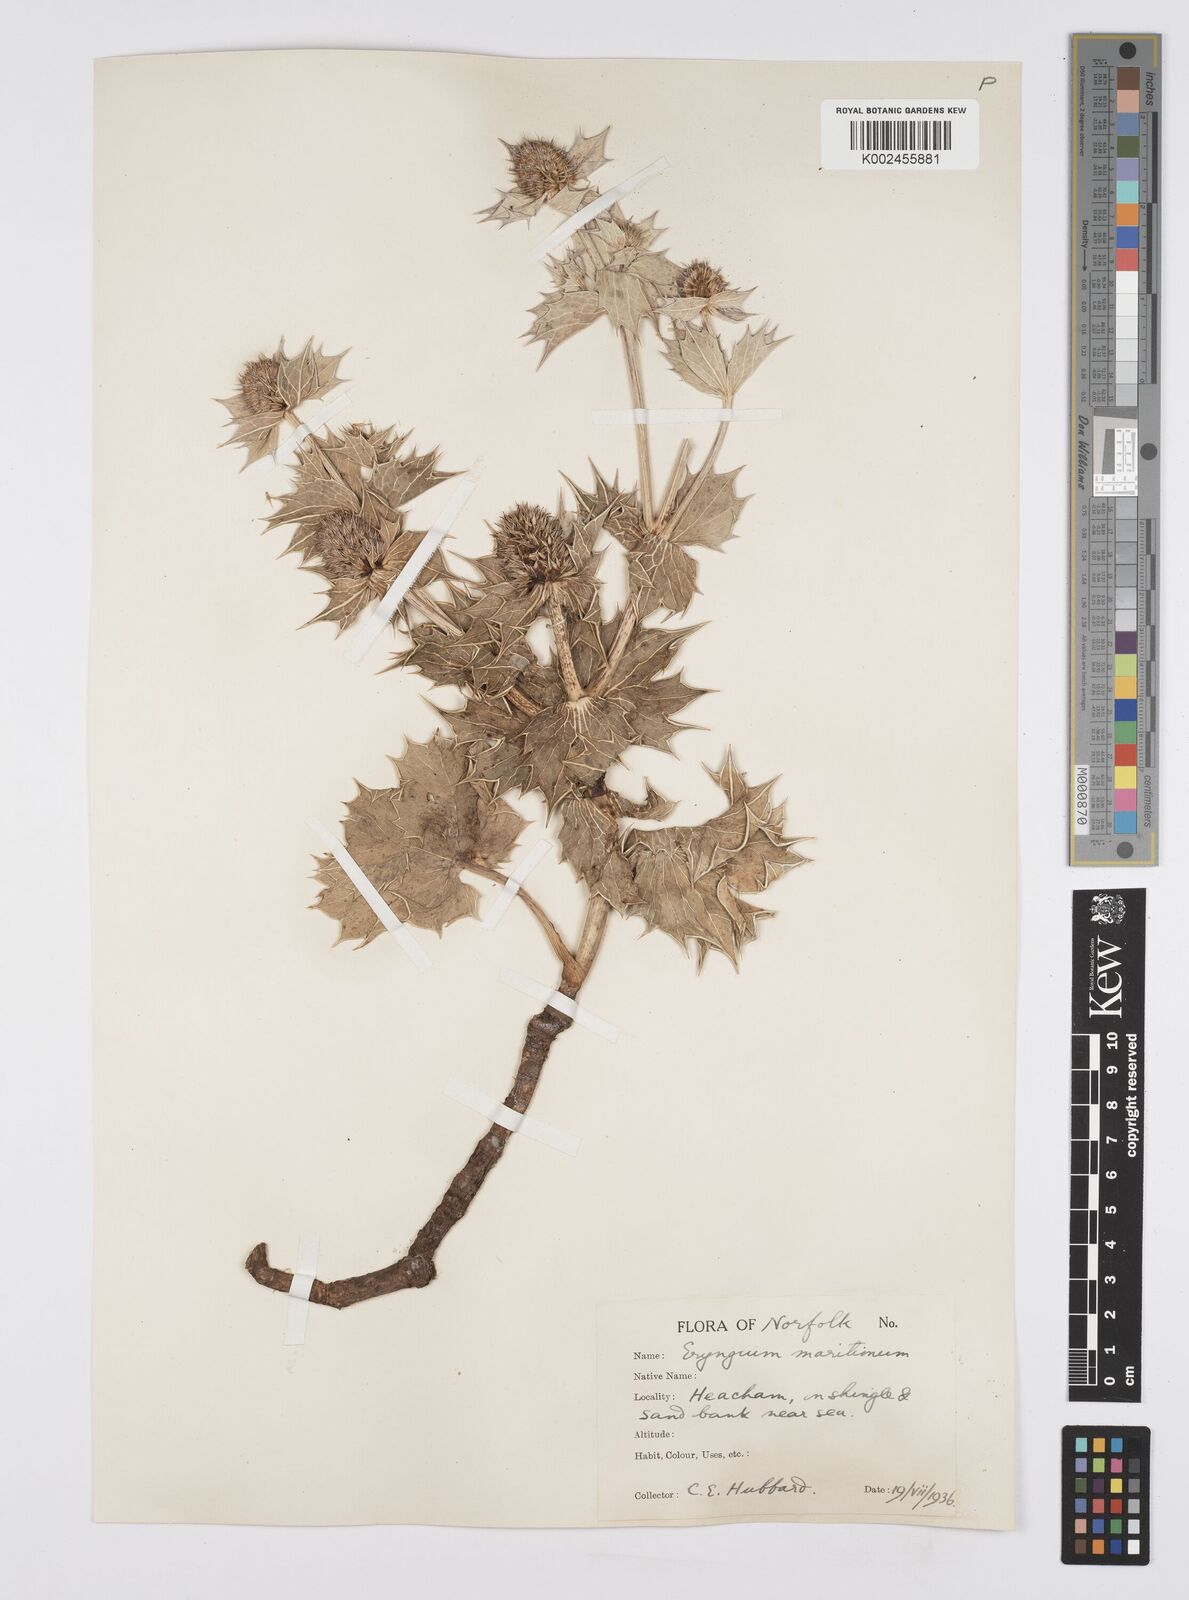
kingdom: Plantae
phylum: Tracheophyta
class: Magnoliopsida
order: Apiales
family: Apiaceae
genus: Eryngium
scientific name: Eryngium maritimum
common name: Sea-holly
